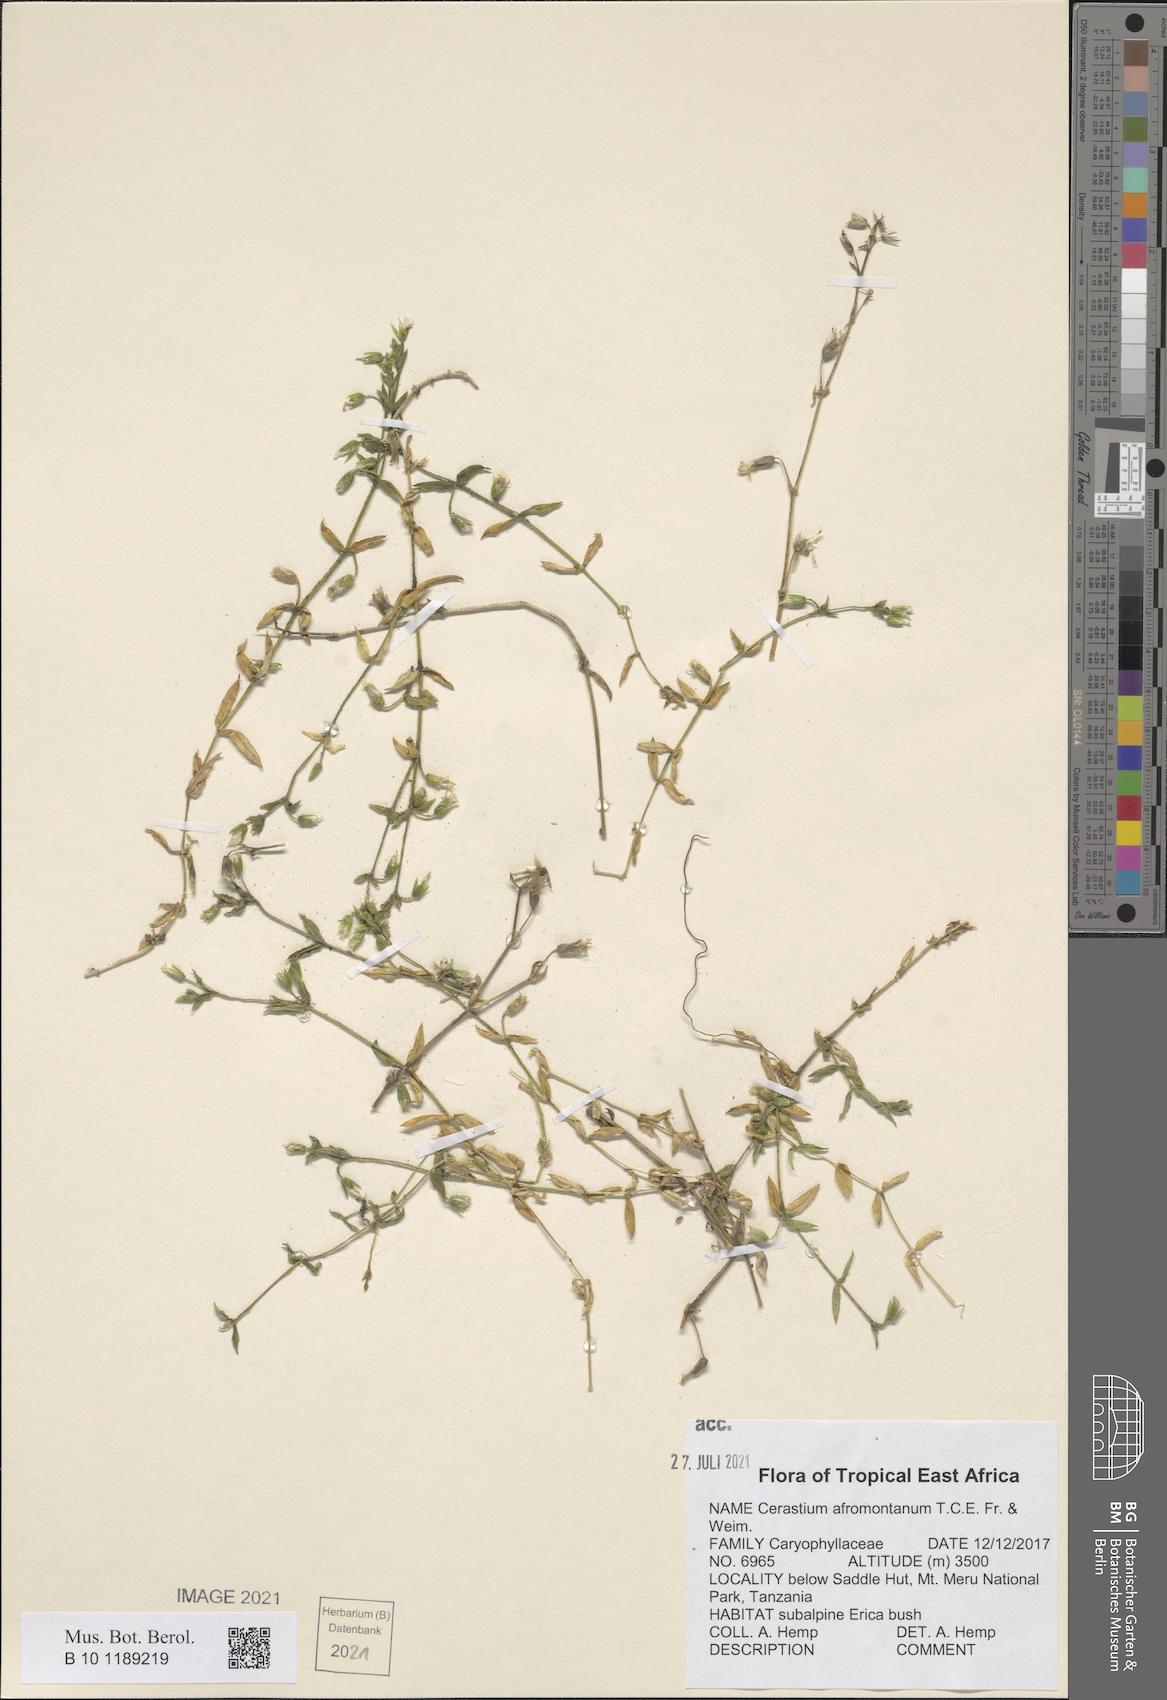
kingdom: Plantae
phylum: Tracheophyta
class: Magnoliopsida
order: Caryophyllales
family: Caryophyllaceae
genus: Cerastium
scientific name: Cerastium afromontanum
